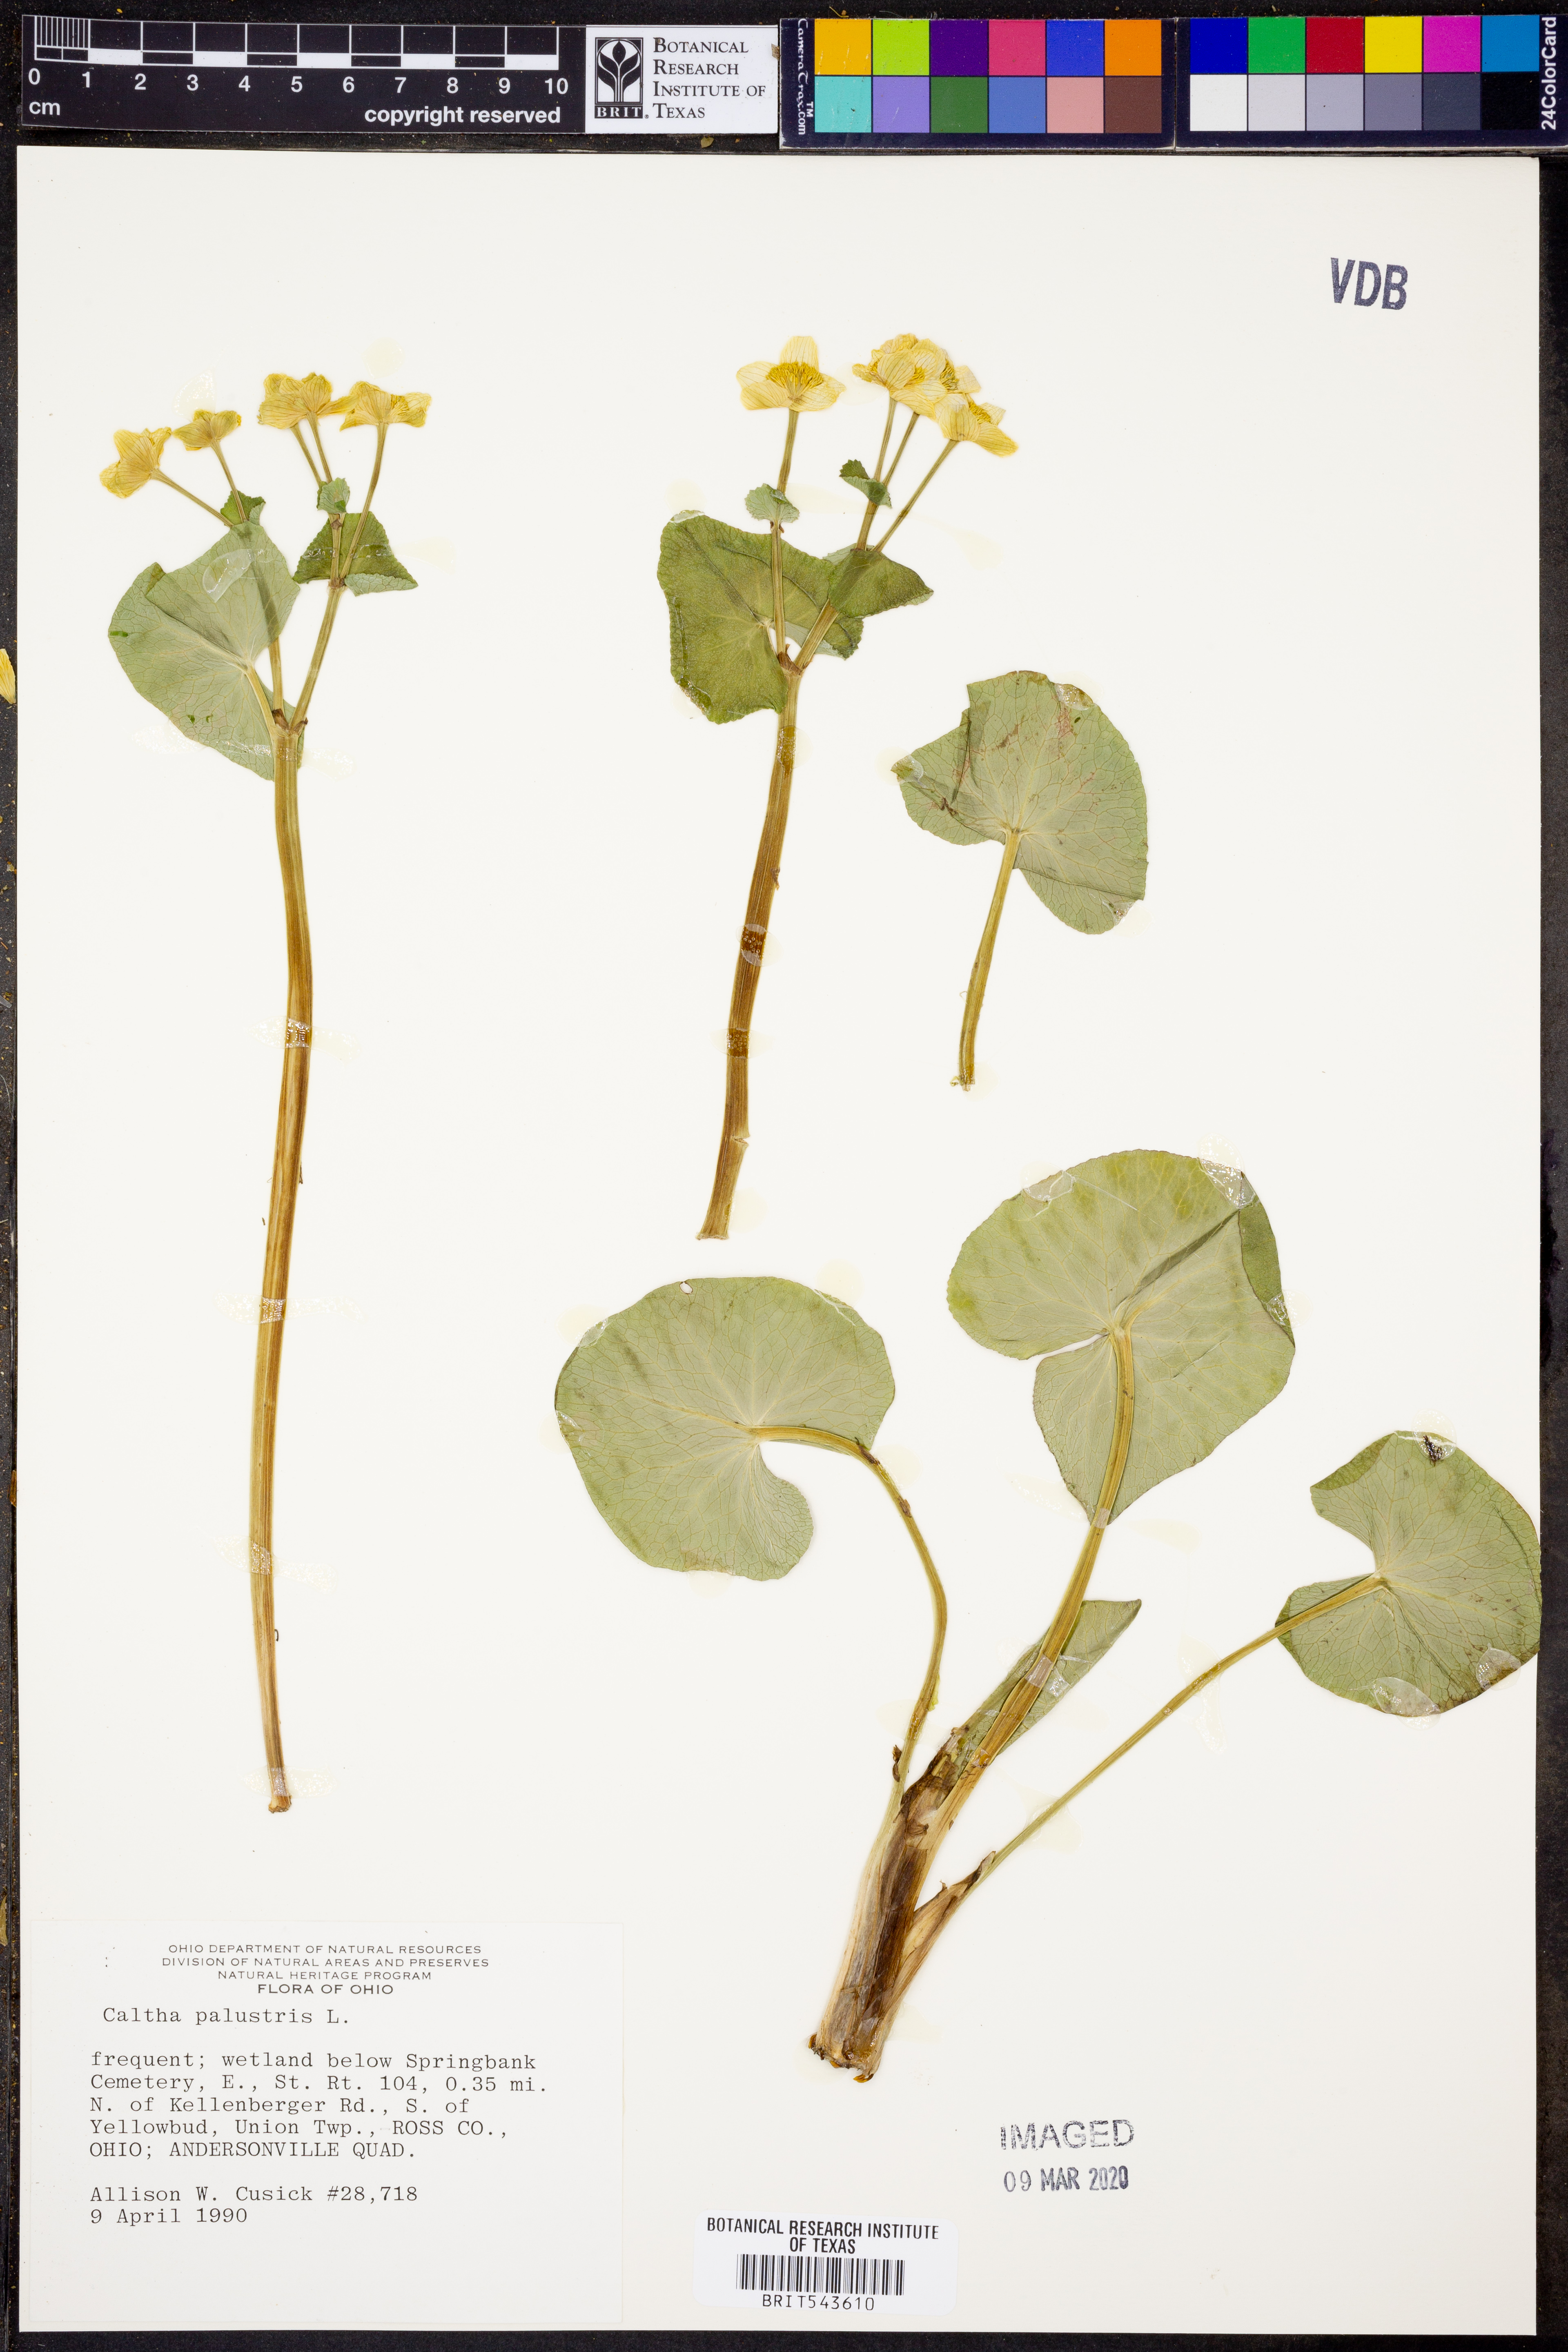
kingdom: Plantae
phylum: Tracheophyta
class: Magnoliopsida
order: Ranunculales
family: Ranunculaceae
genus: Caltha
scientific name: Caltha palustris
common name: Marsh marigold
